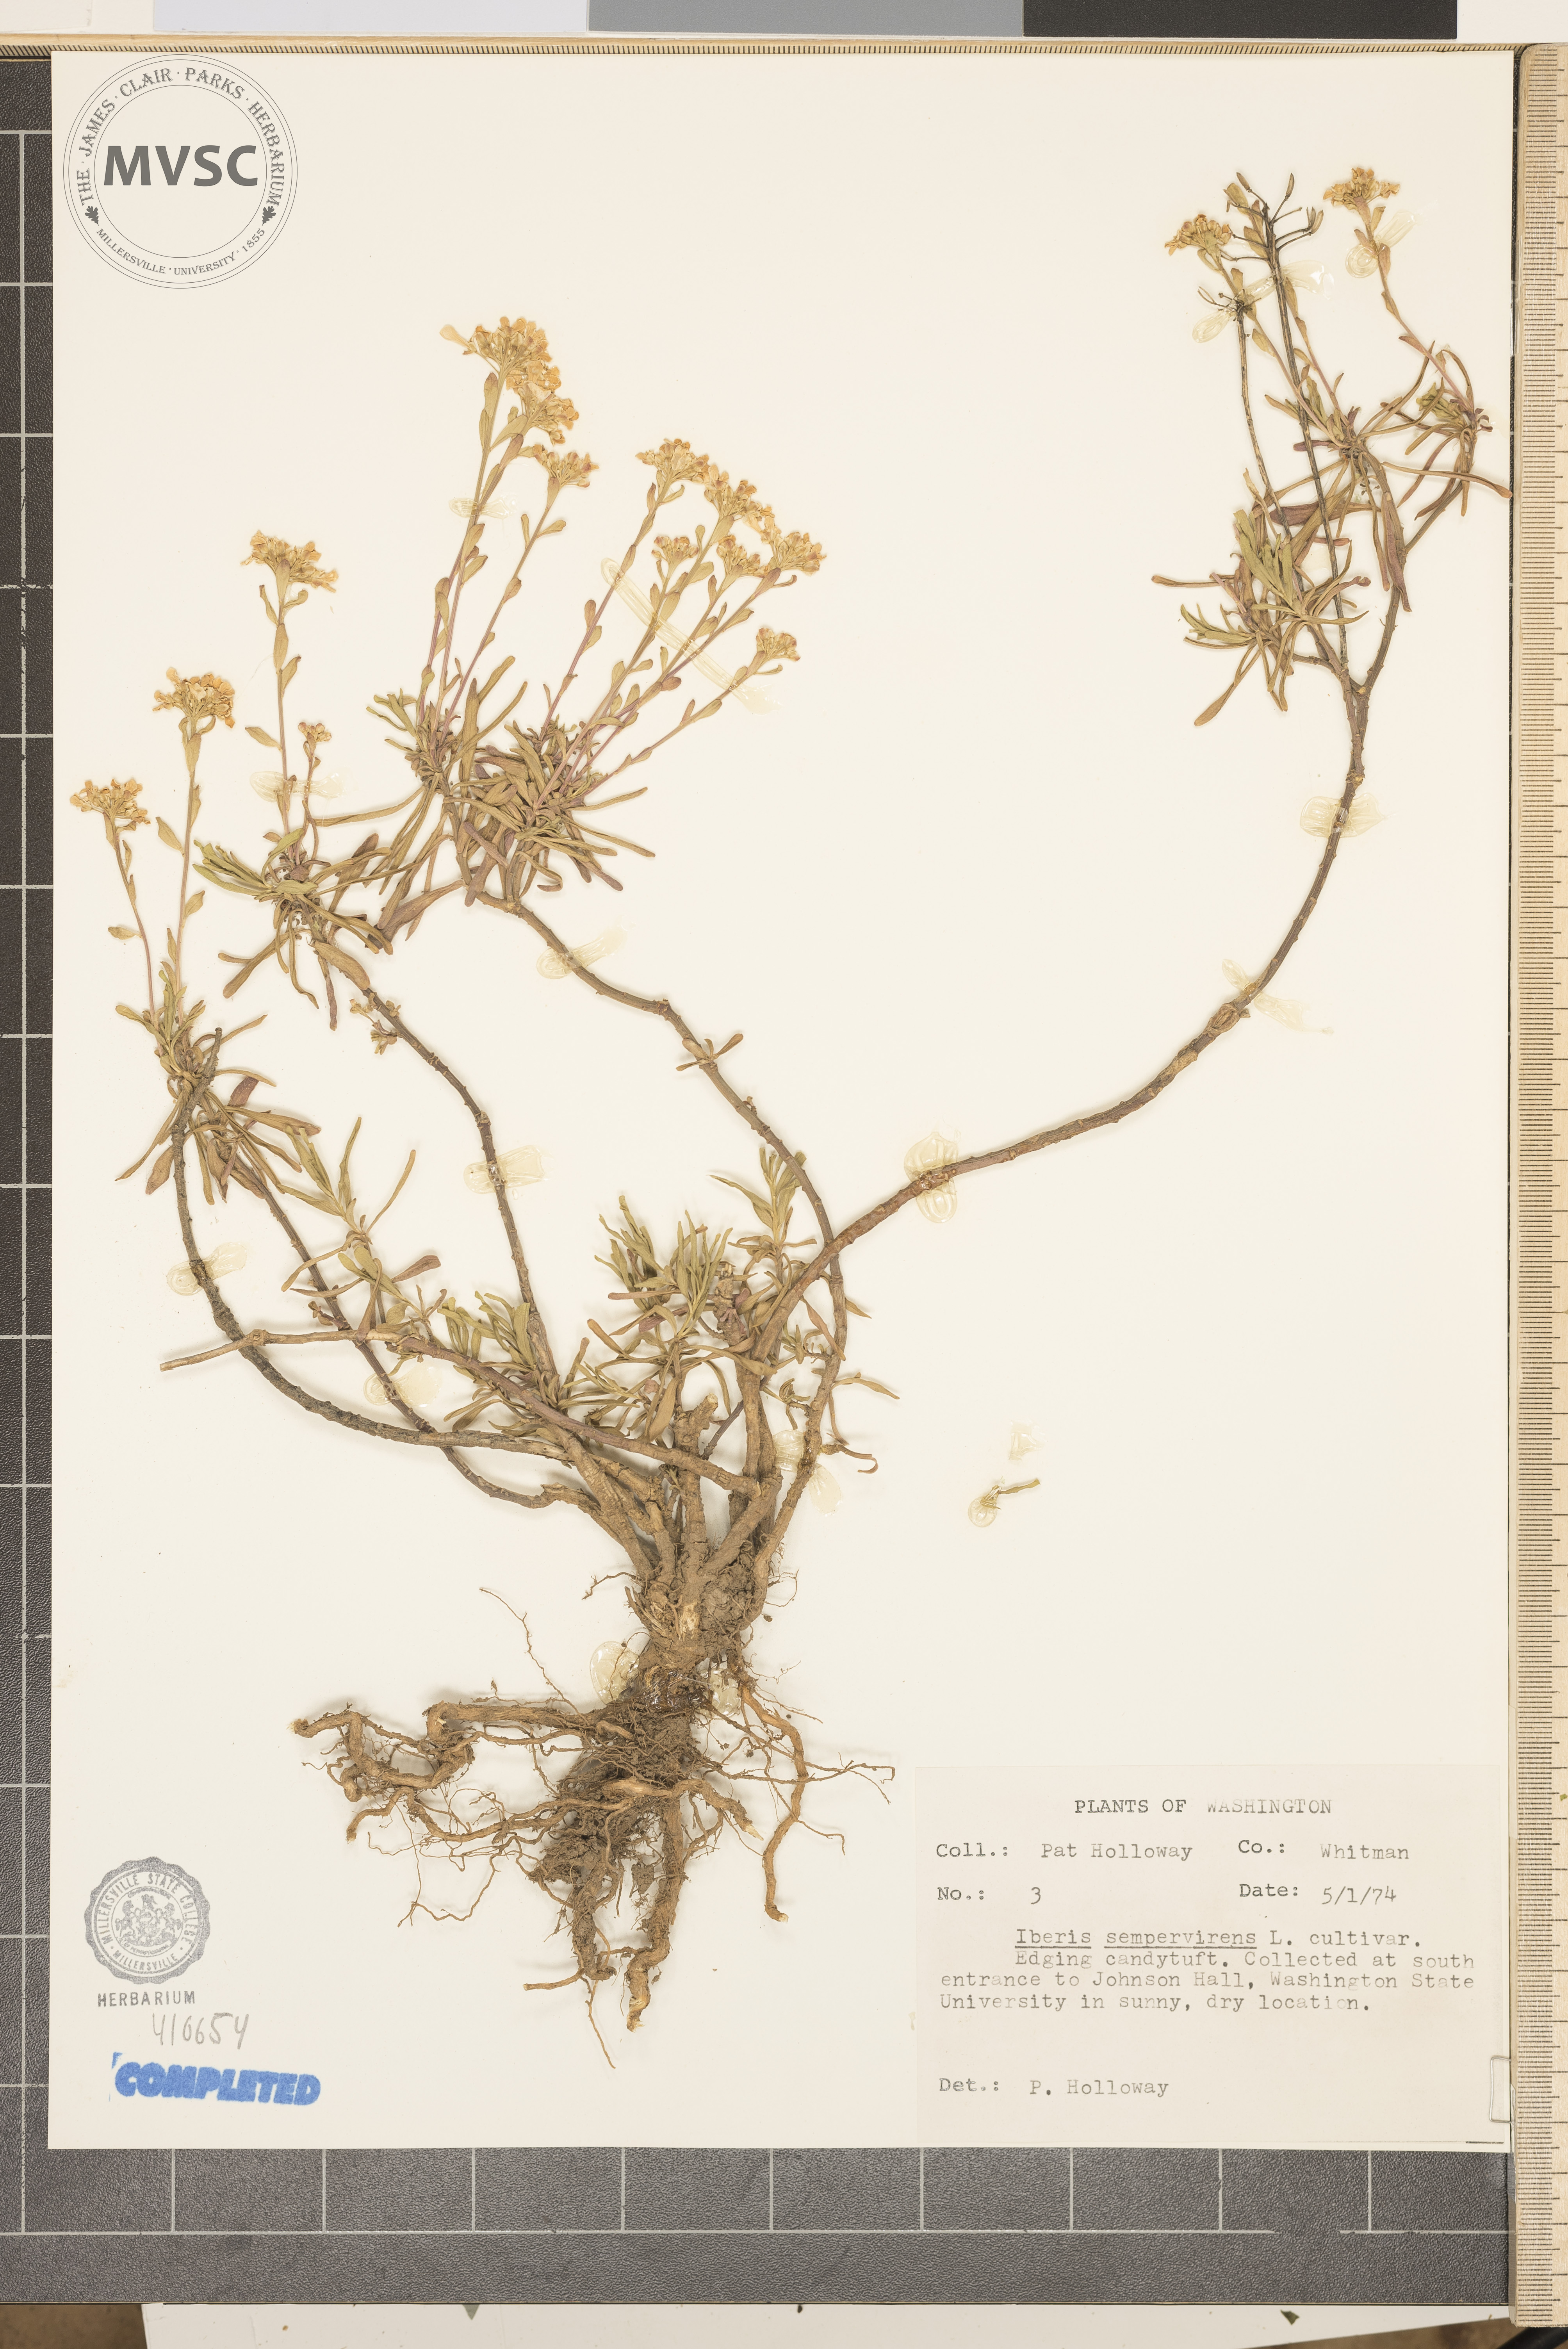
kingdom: Plantae
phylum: Tracheophyta
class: Magnoliopsida
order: Brassicales
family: Brassicaceae
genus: Iberis
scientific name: Iberis sempervirens
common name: Candytuft
